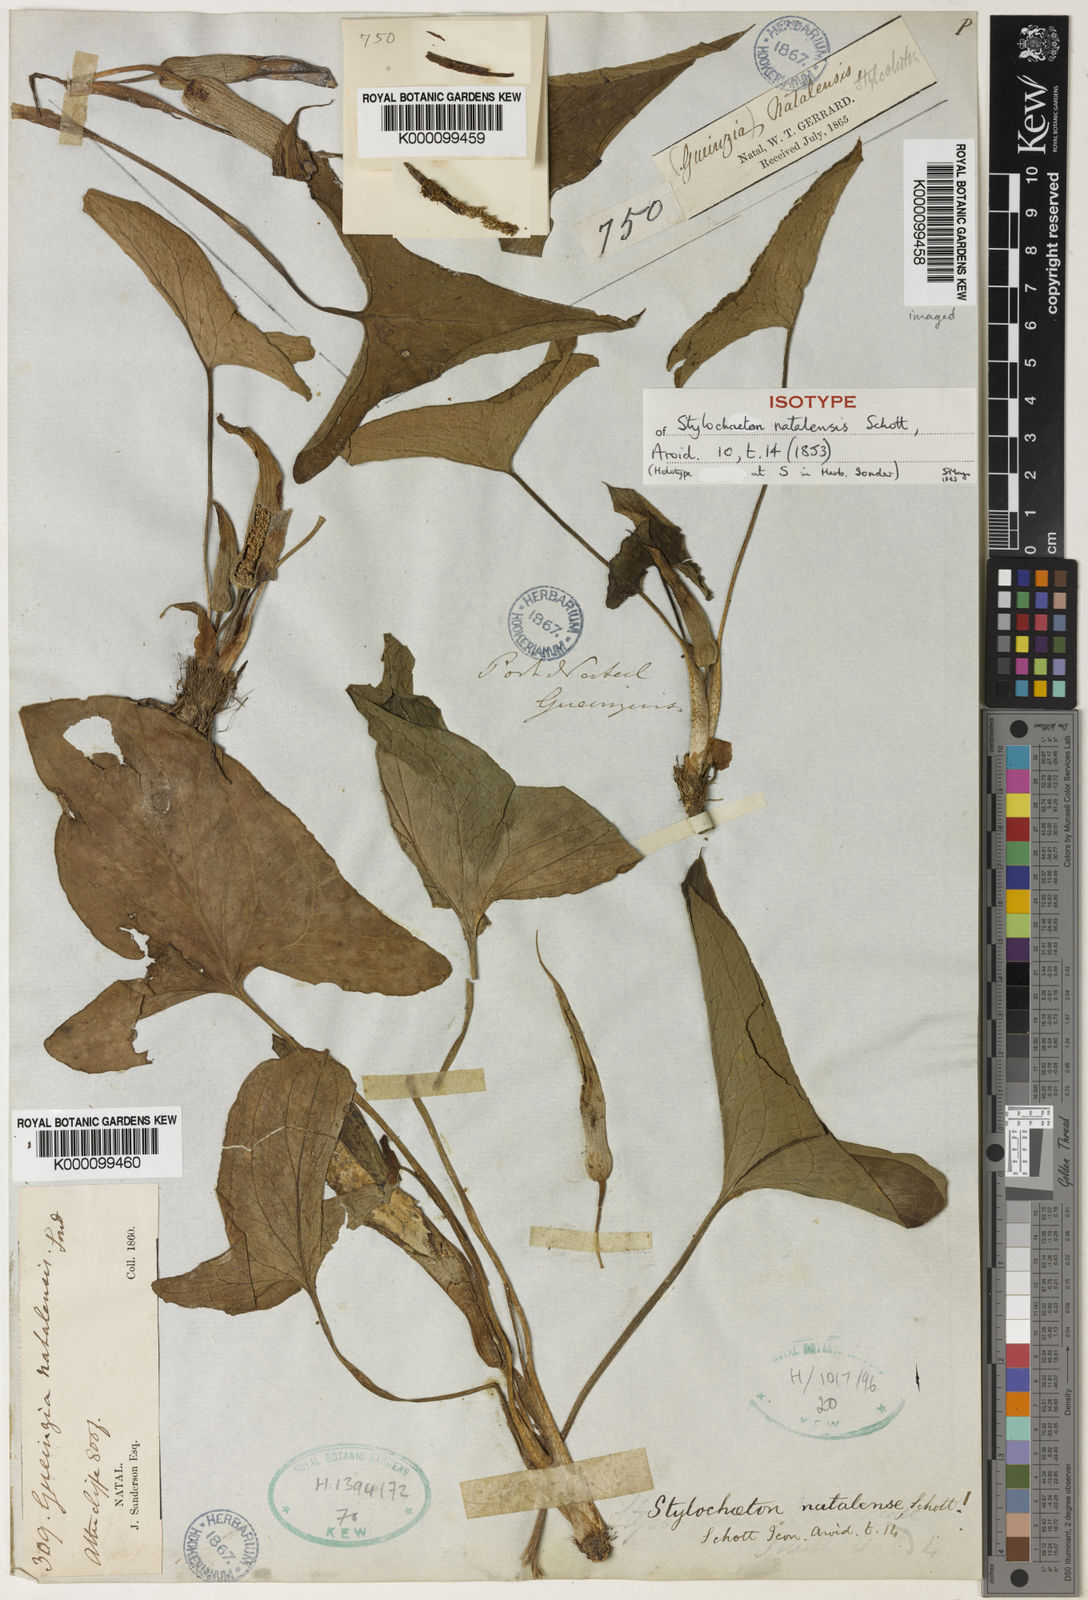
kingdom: Plantae
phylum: Tracheophyta
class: Liliopsida
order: Alismatales
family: Araceae
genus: Stylochaeton
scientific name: Stylochaeton
